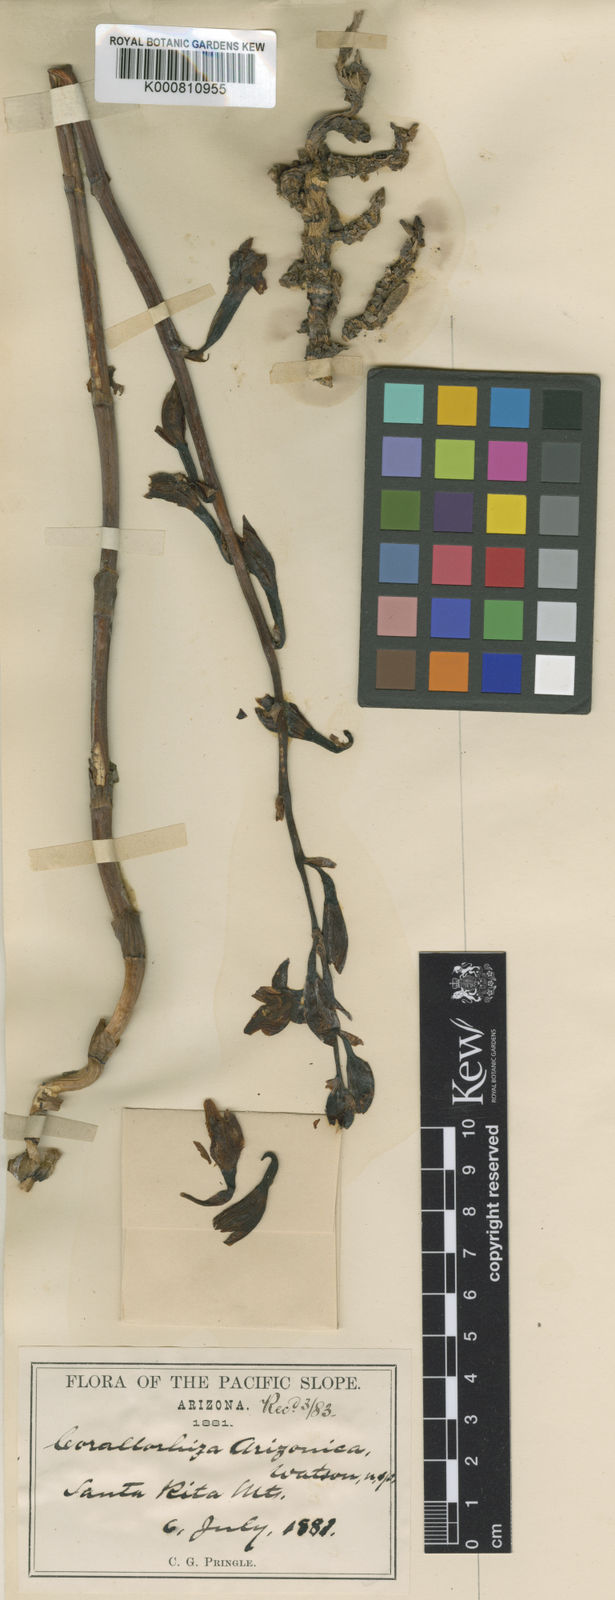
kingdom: Plantae
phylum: Tracheophyta
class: Liliopsida
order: Asparagales
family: Orchidaceae
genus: Bletia
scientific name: Bletia spicata
